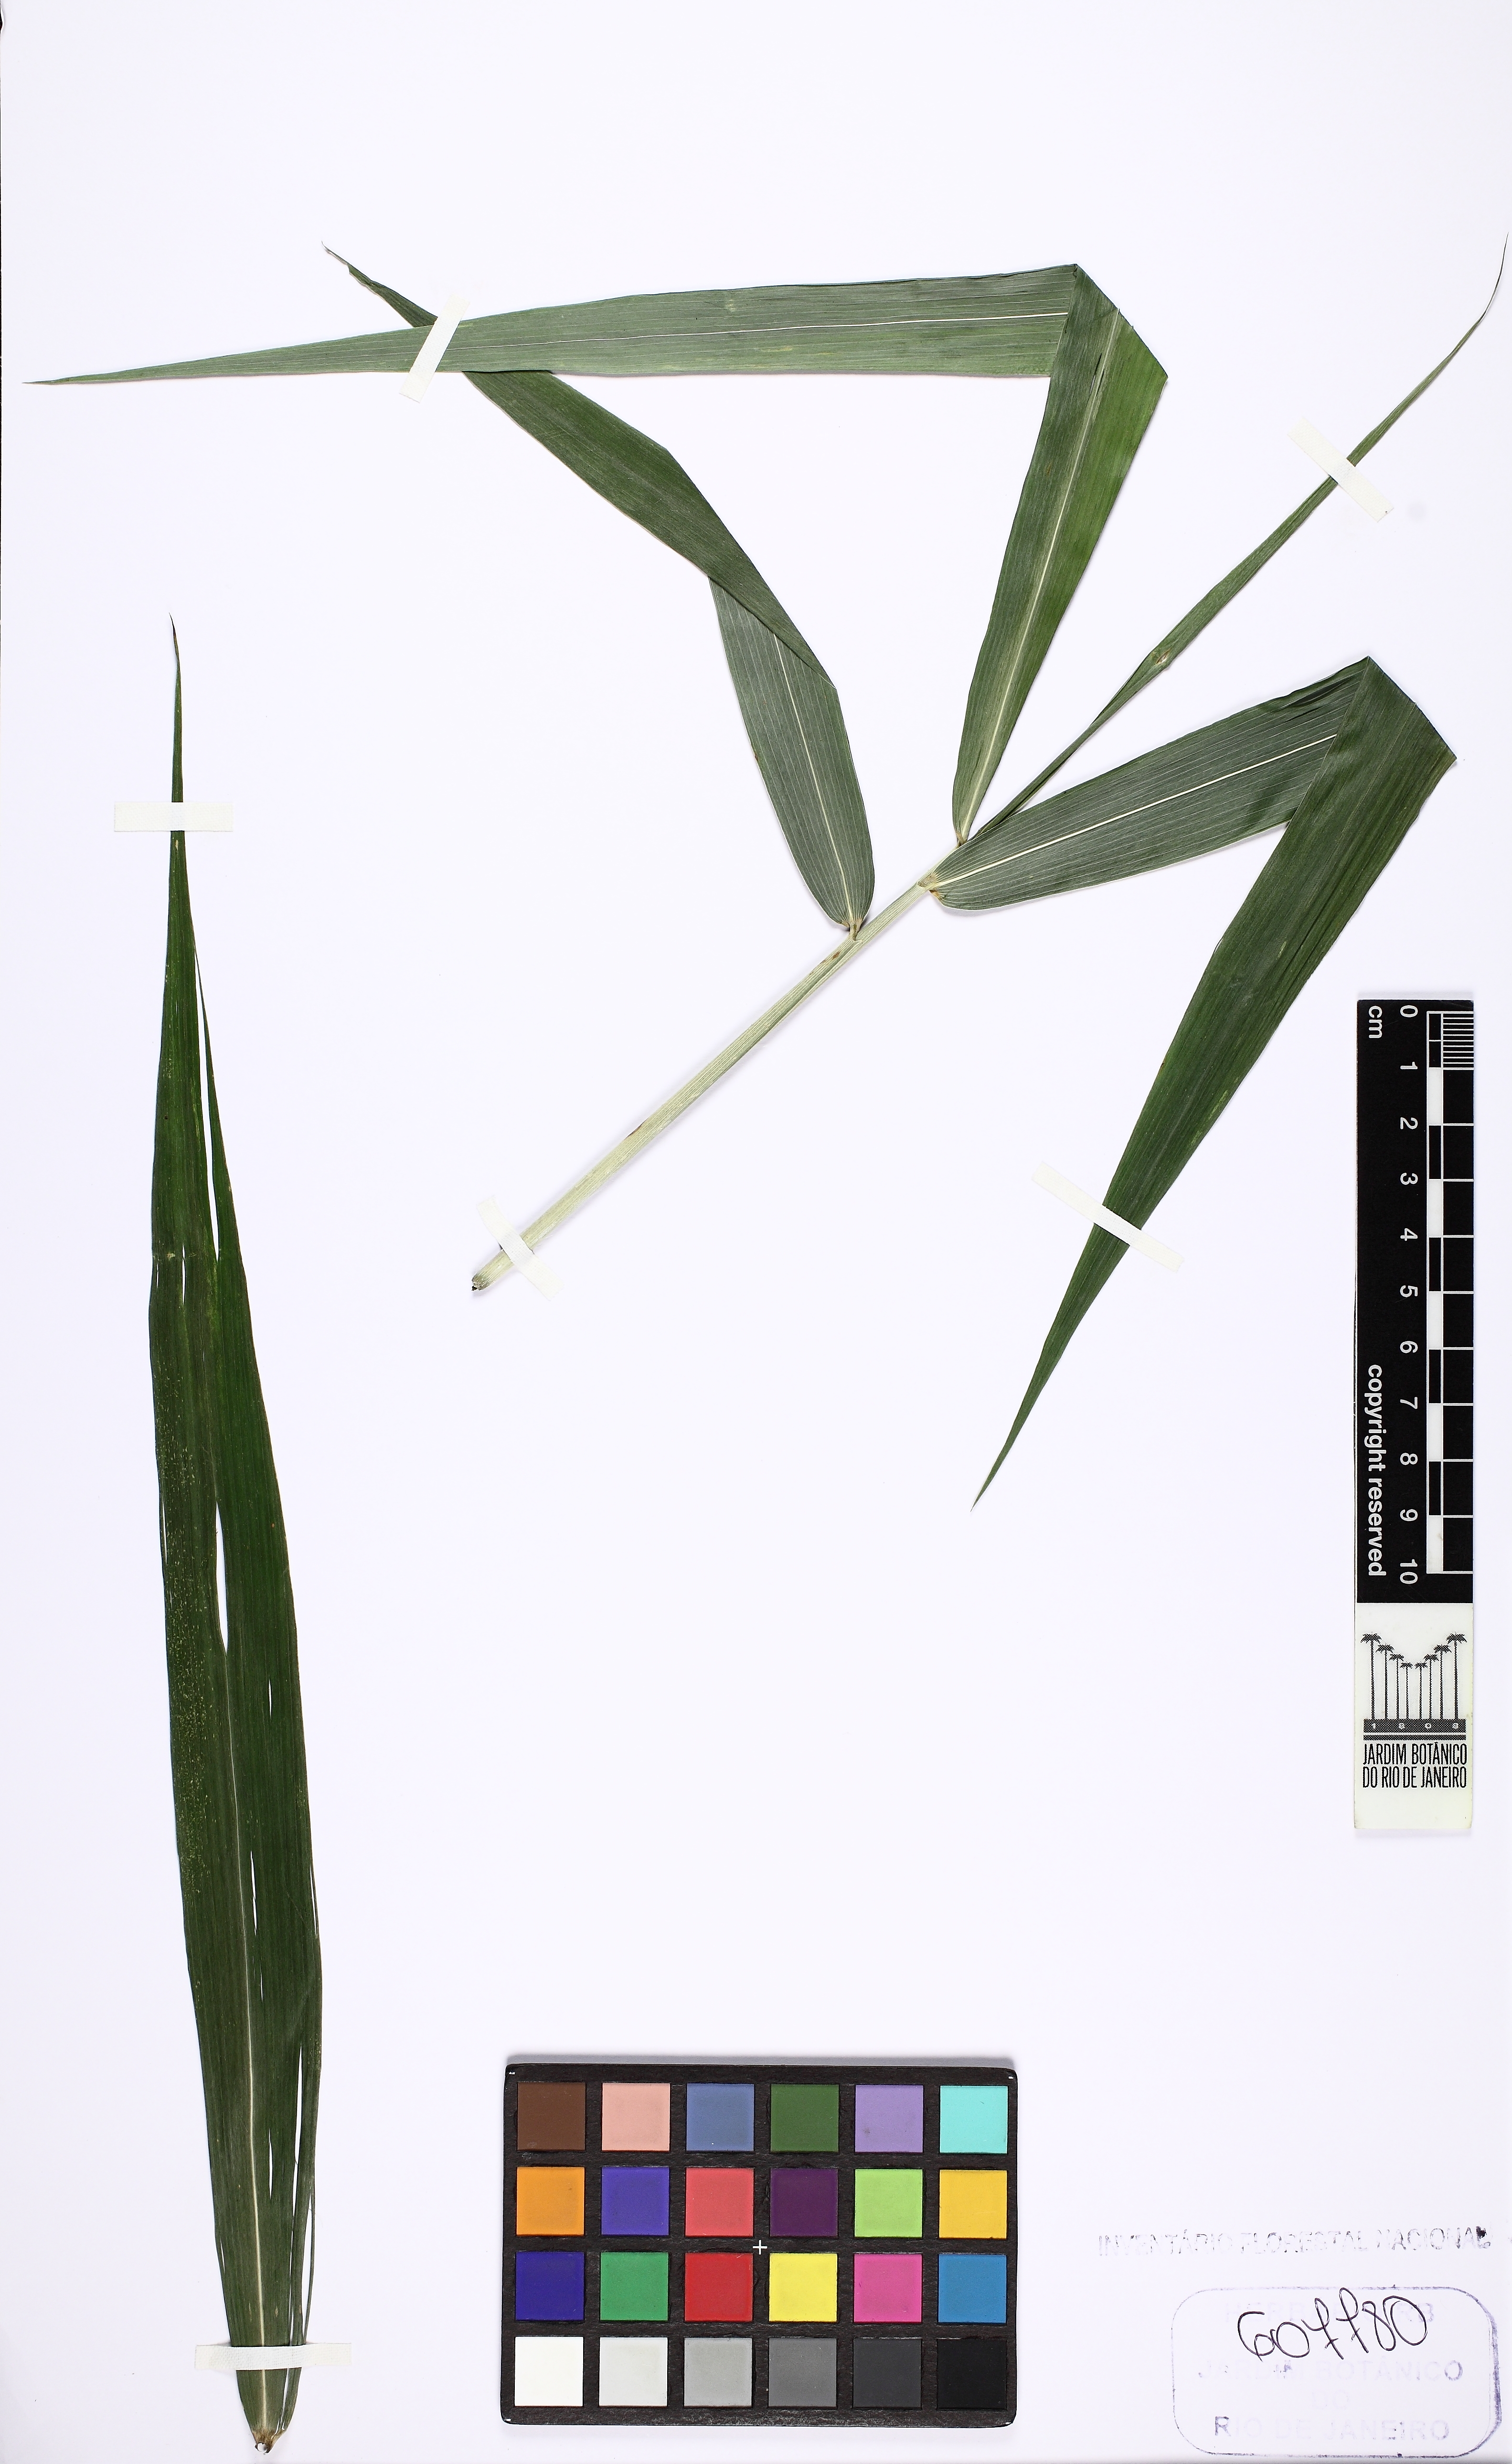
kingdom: Plantae
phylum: Tracheophyta
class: Liliopsida
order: Poales
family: Poaceae
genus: Parodiophyllochloa
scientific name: Parodiophyllochloa penicillata
